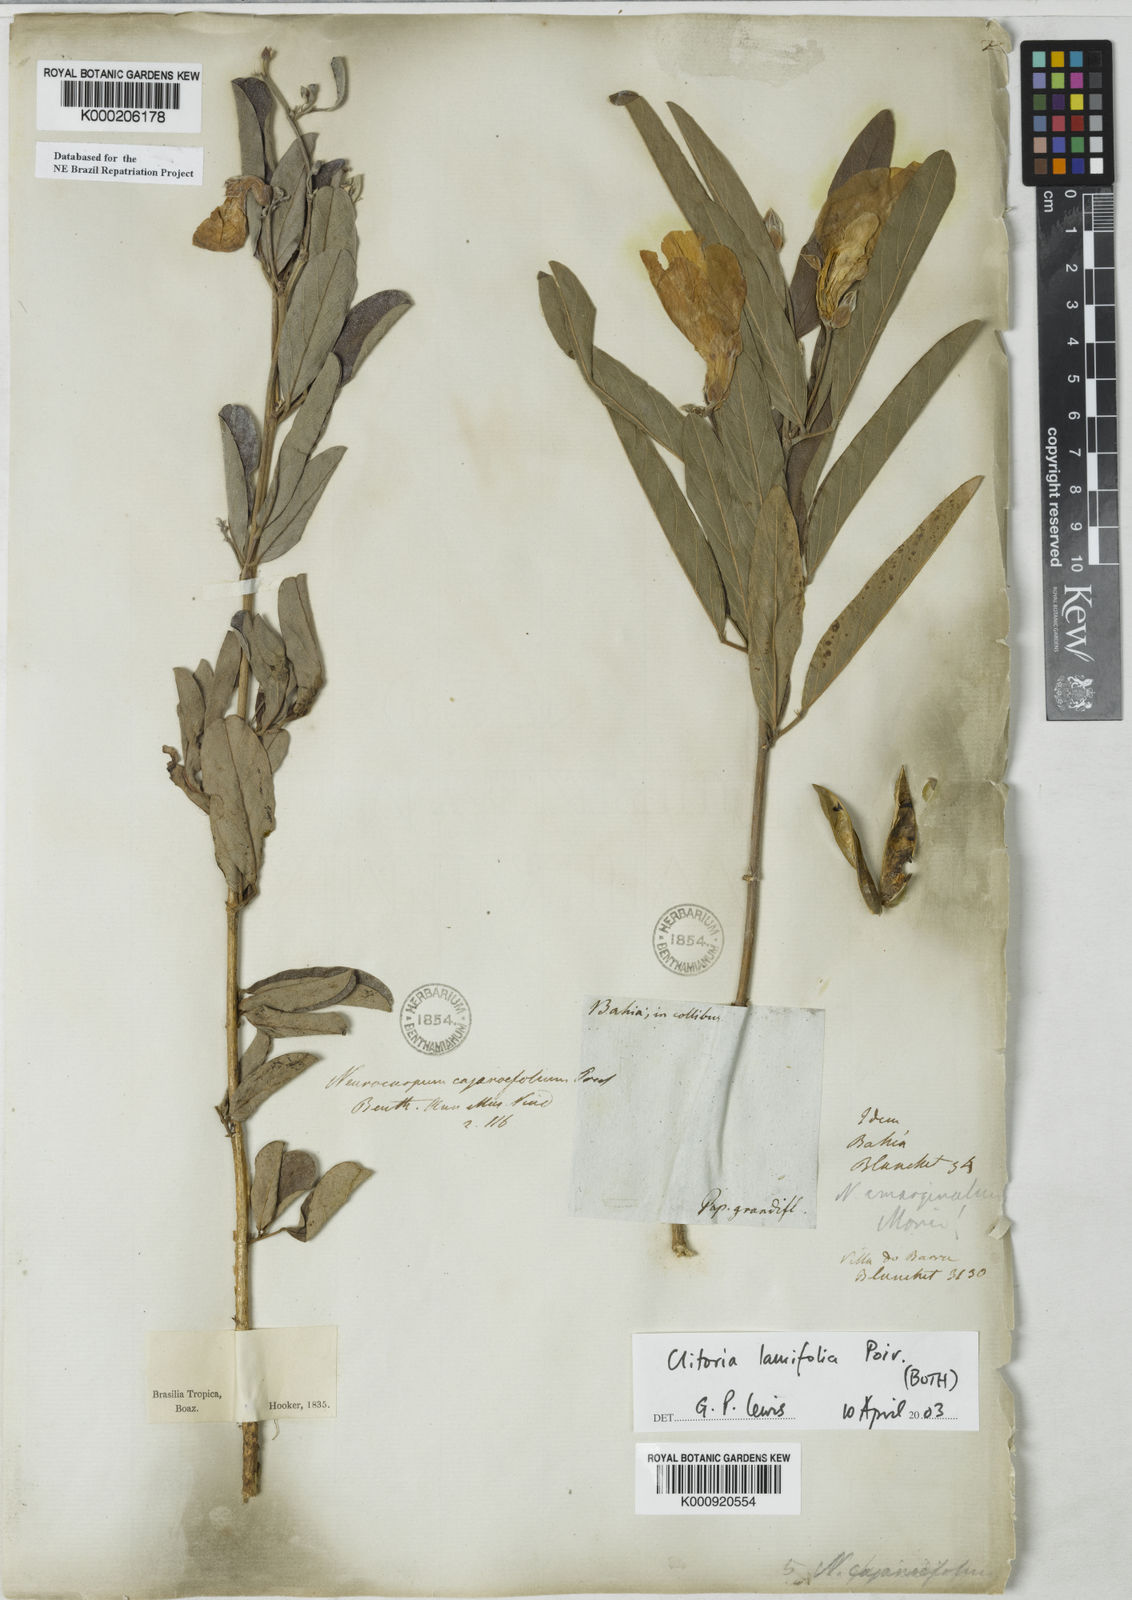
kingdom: Plantae
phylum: Tracheophyta
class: Magnoliopsida
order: Fabales
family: Fabaceae
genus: Clitoria
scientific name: Clitoria laurifolia
